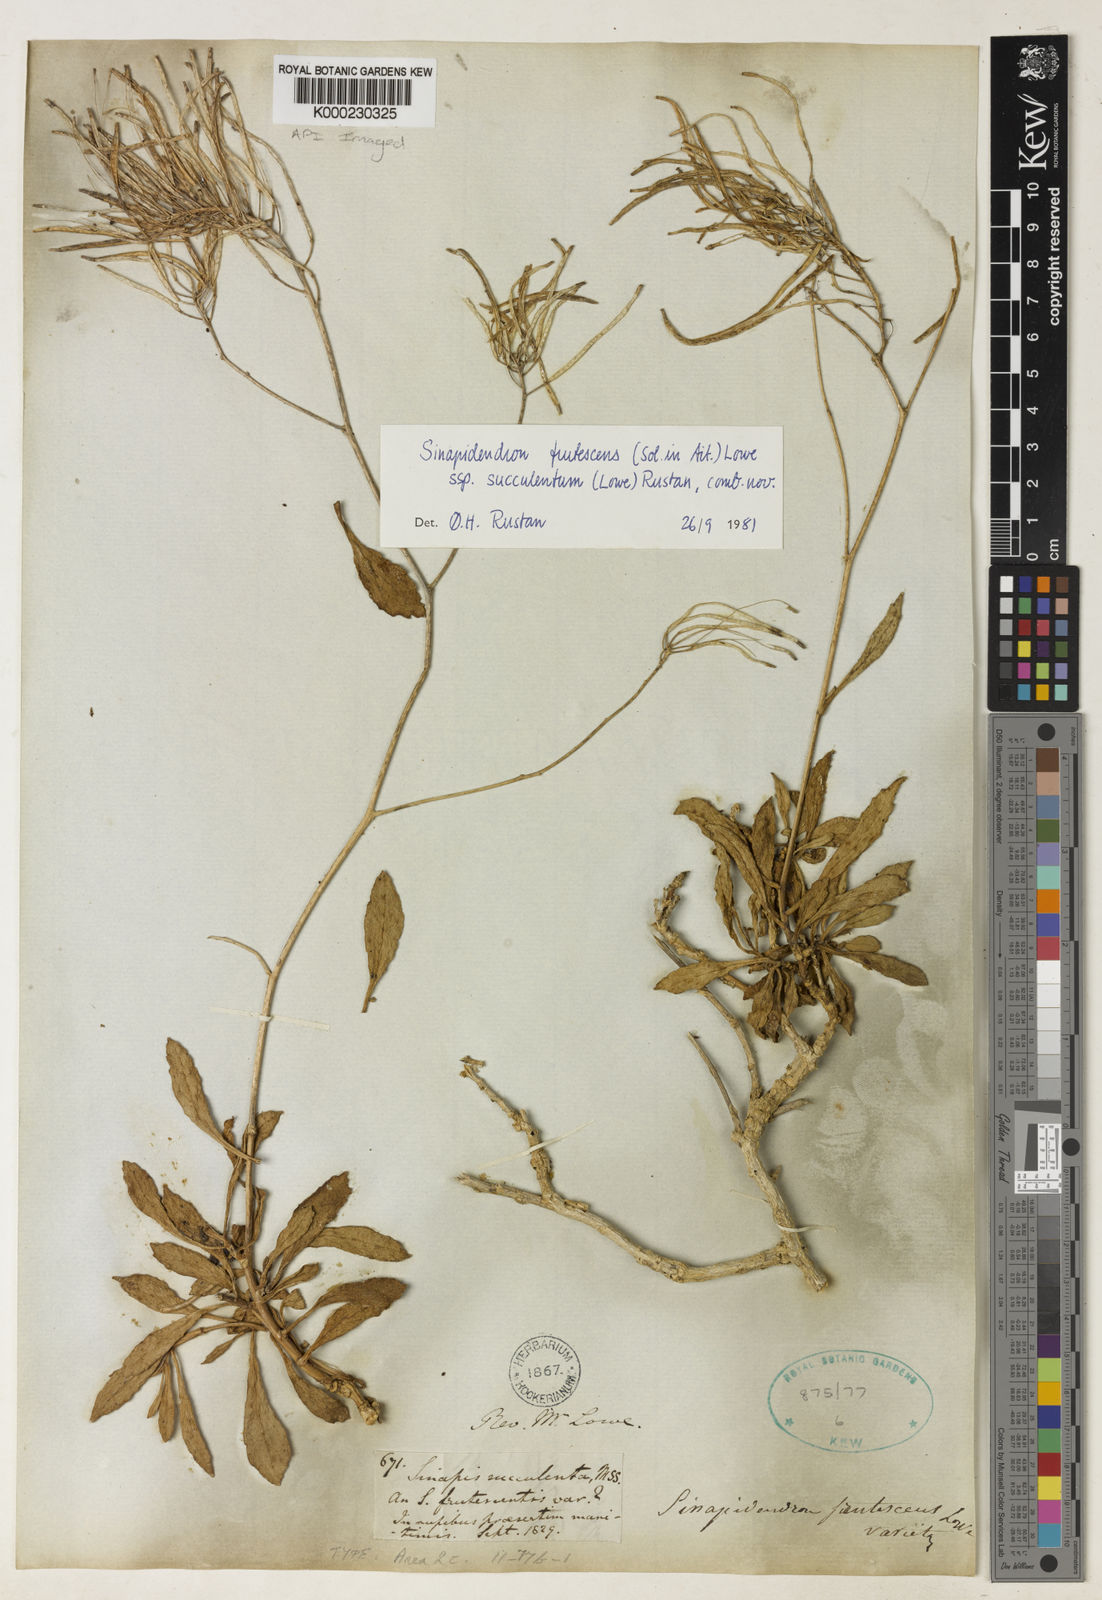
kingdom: Plantae
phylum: Tracheophyta
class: Magnoliopsida
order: Brassicales
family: Brassicaceae
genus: Sinapidendron
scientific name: Sinapidendron frutescens
